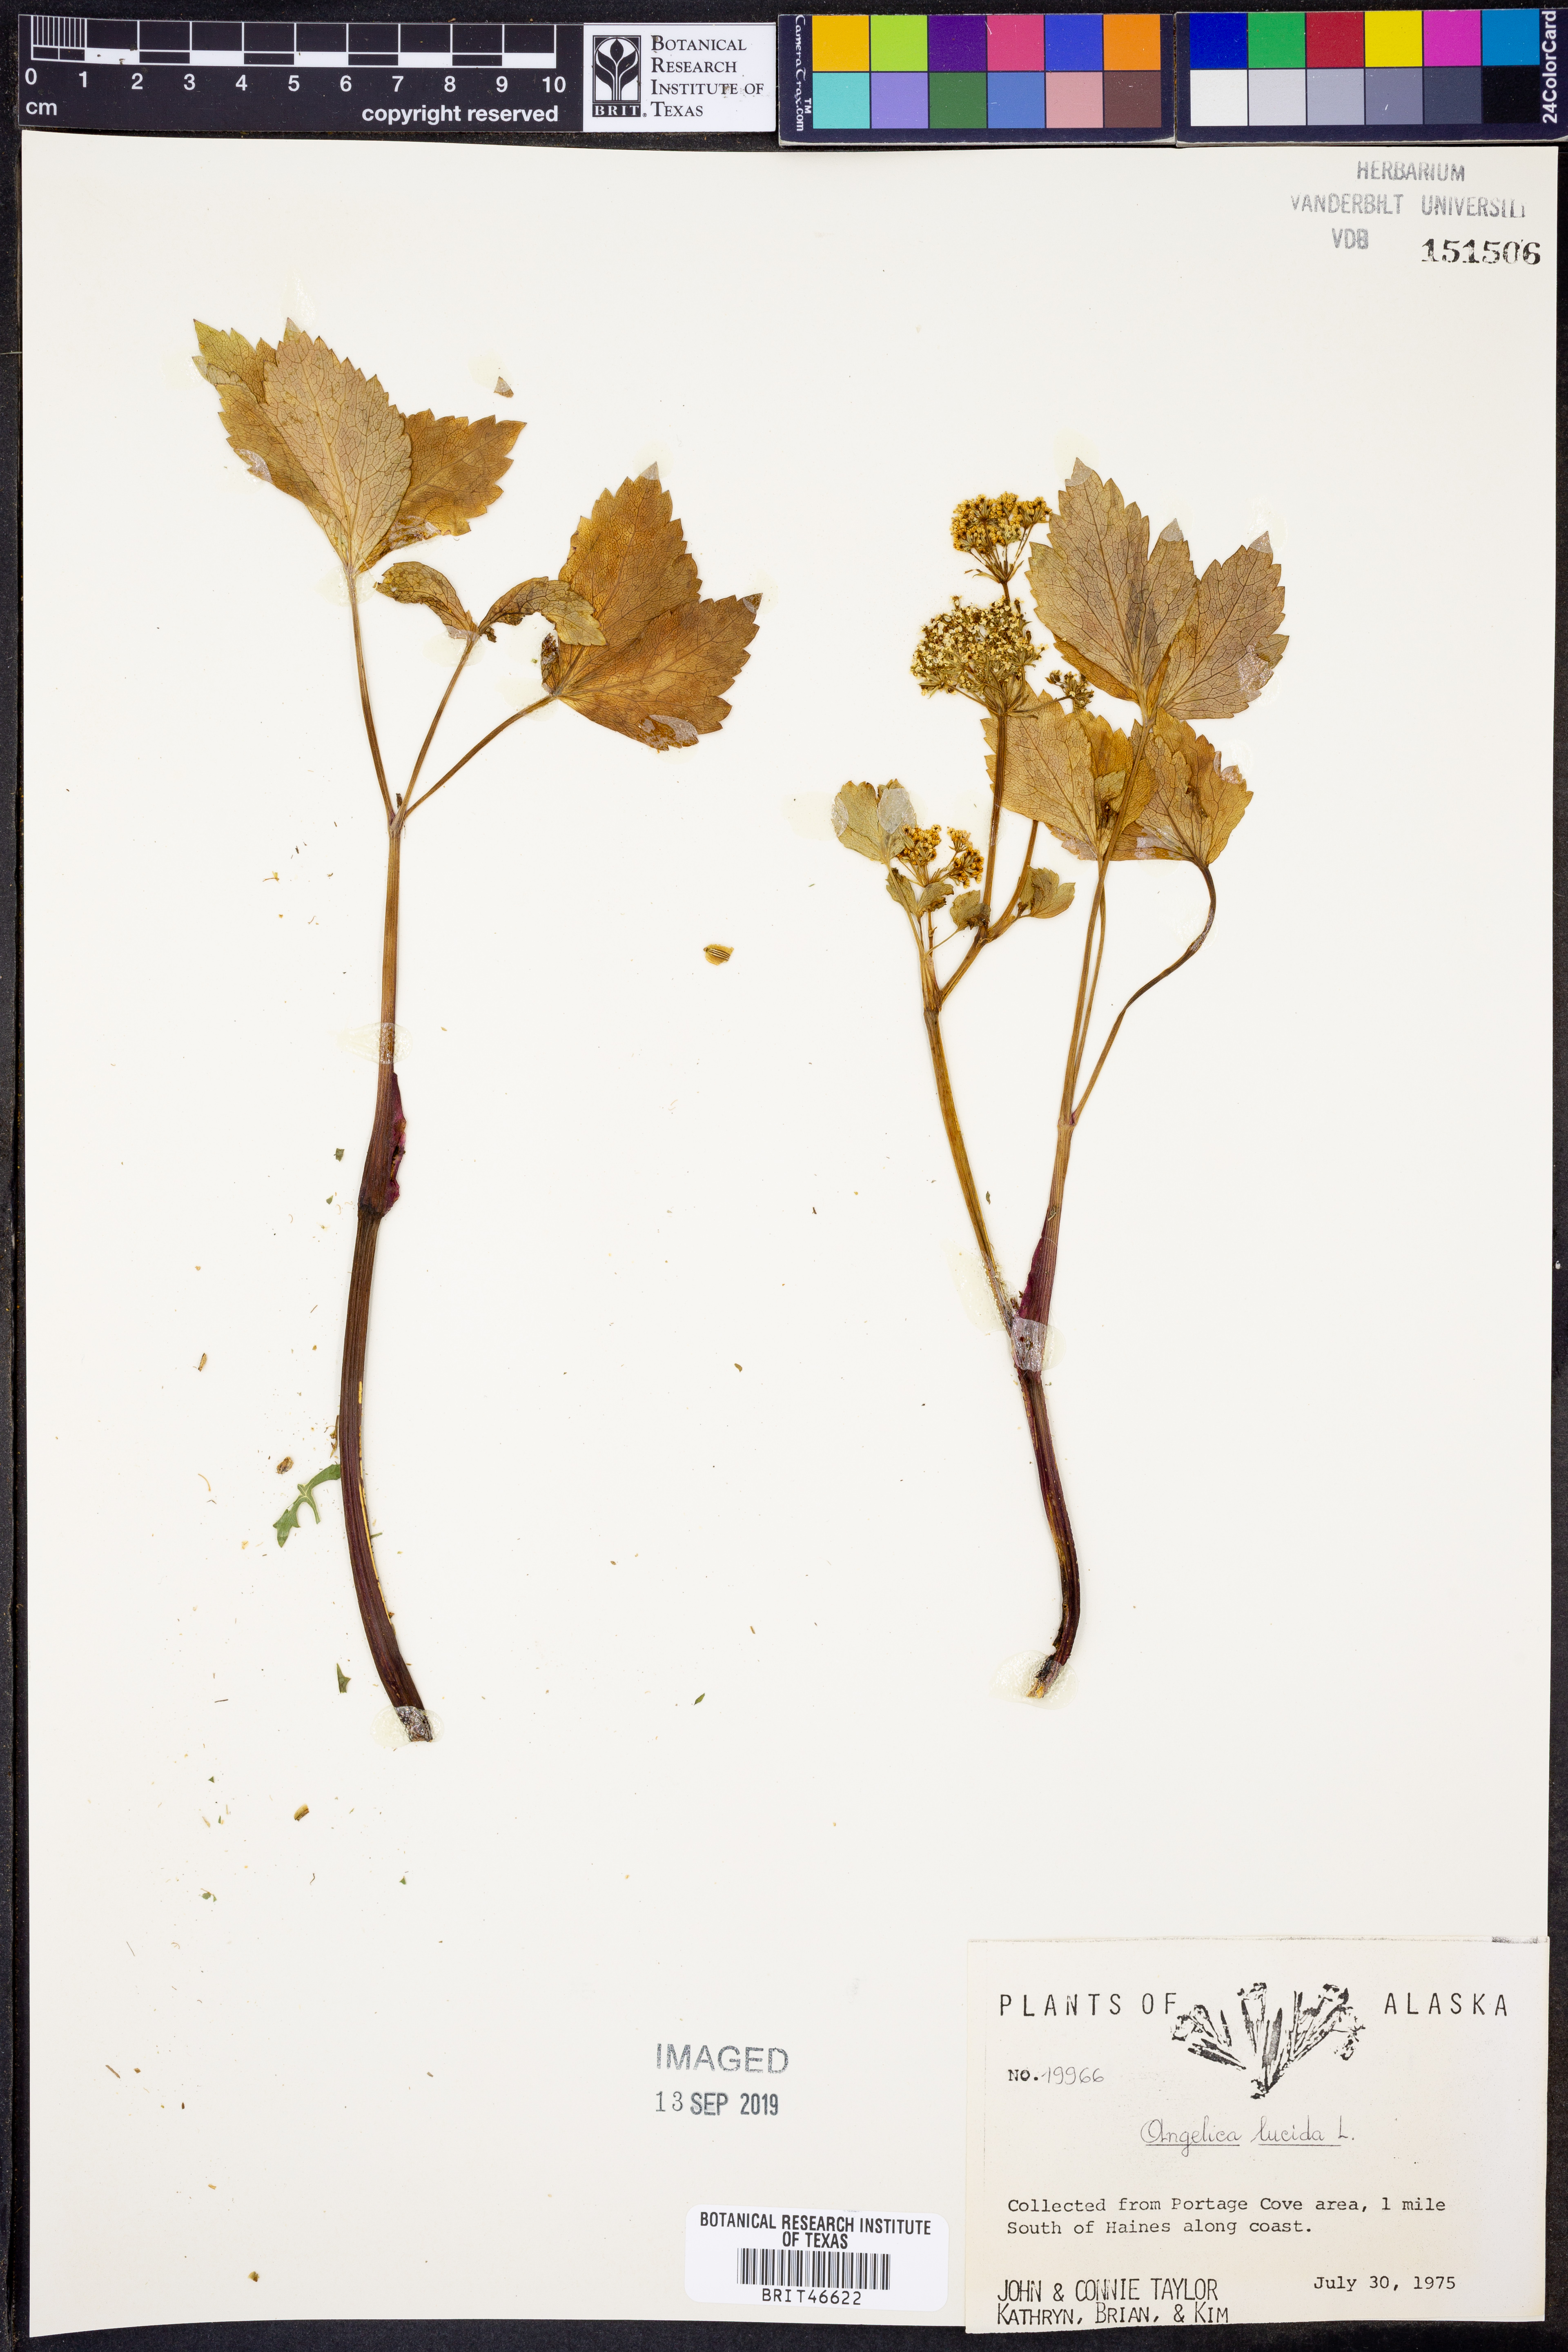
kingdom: Plantae
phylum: Tracheophyta
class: Magnoliopsida
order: Apiales
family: Apiaceae
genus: Angelica
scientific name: Angelica lucida
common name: Seabeach angelica
